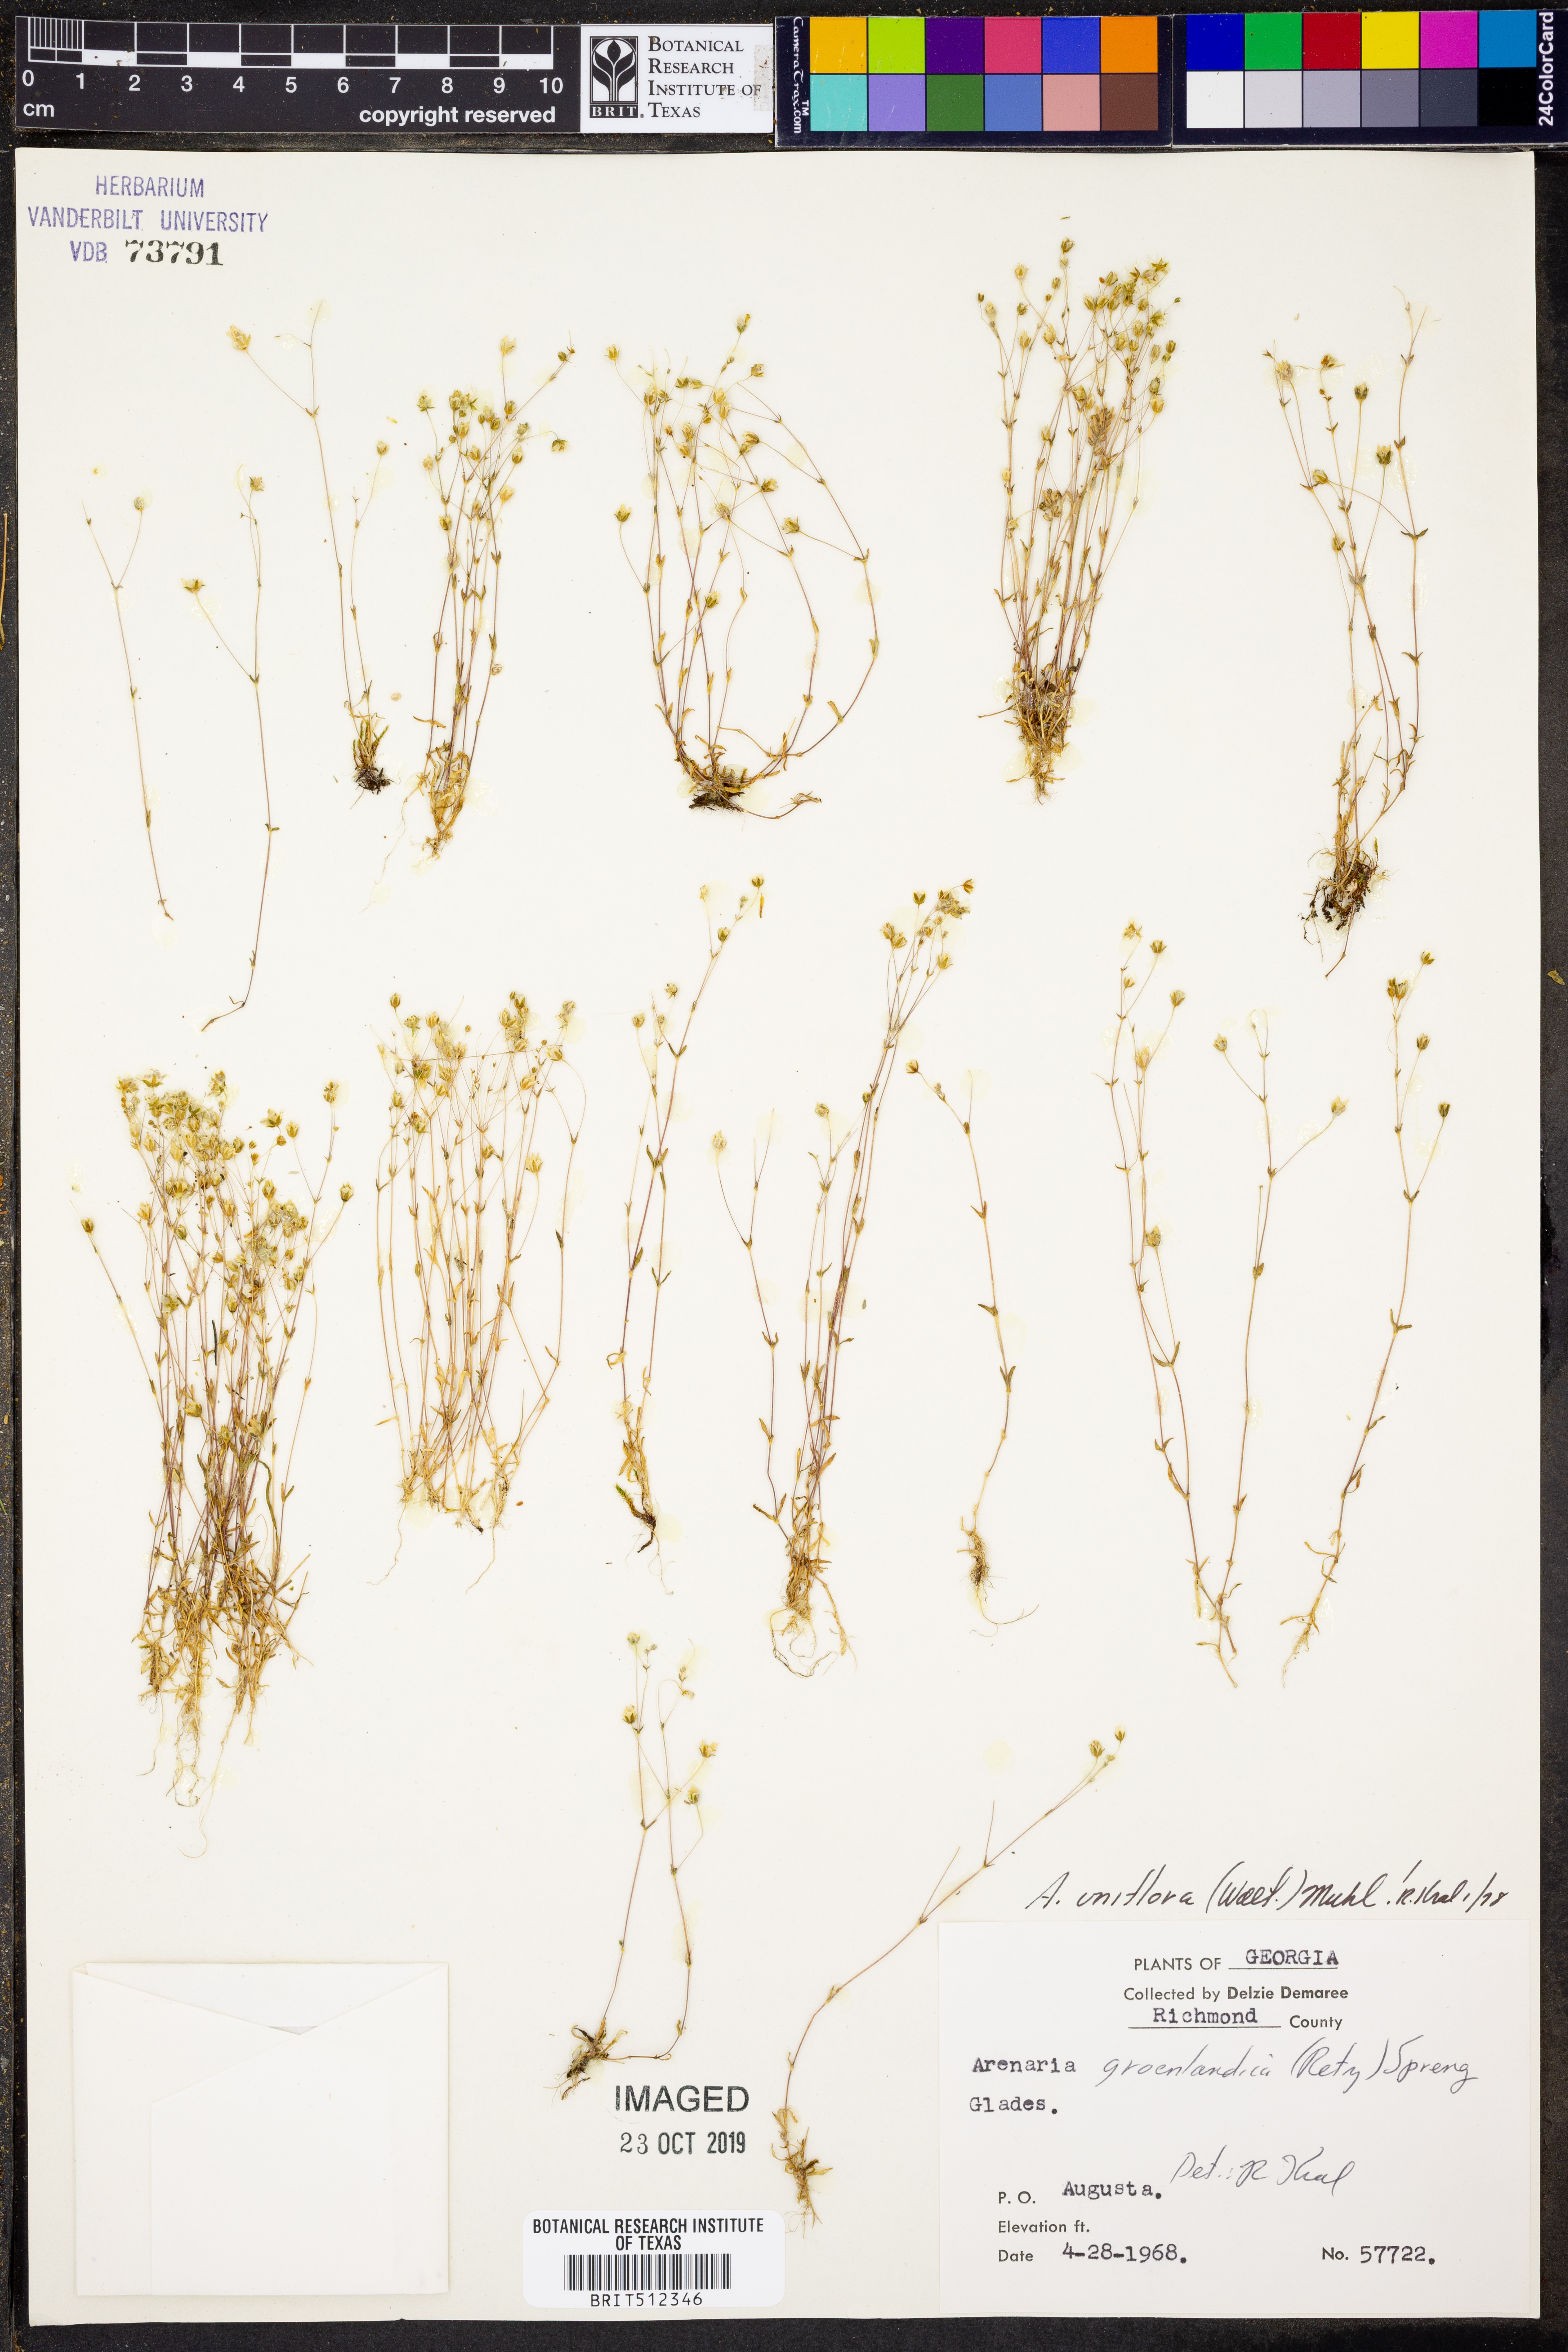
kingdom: Plantae
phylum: Tracheophyta
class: Magnoliopsida
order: Caryophyllales
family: Caryophyllaceae
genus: Geocarpon
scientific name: Geocarpon uniflorum
